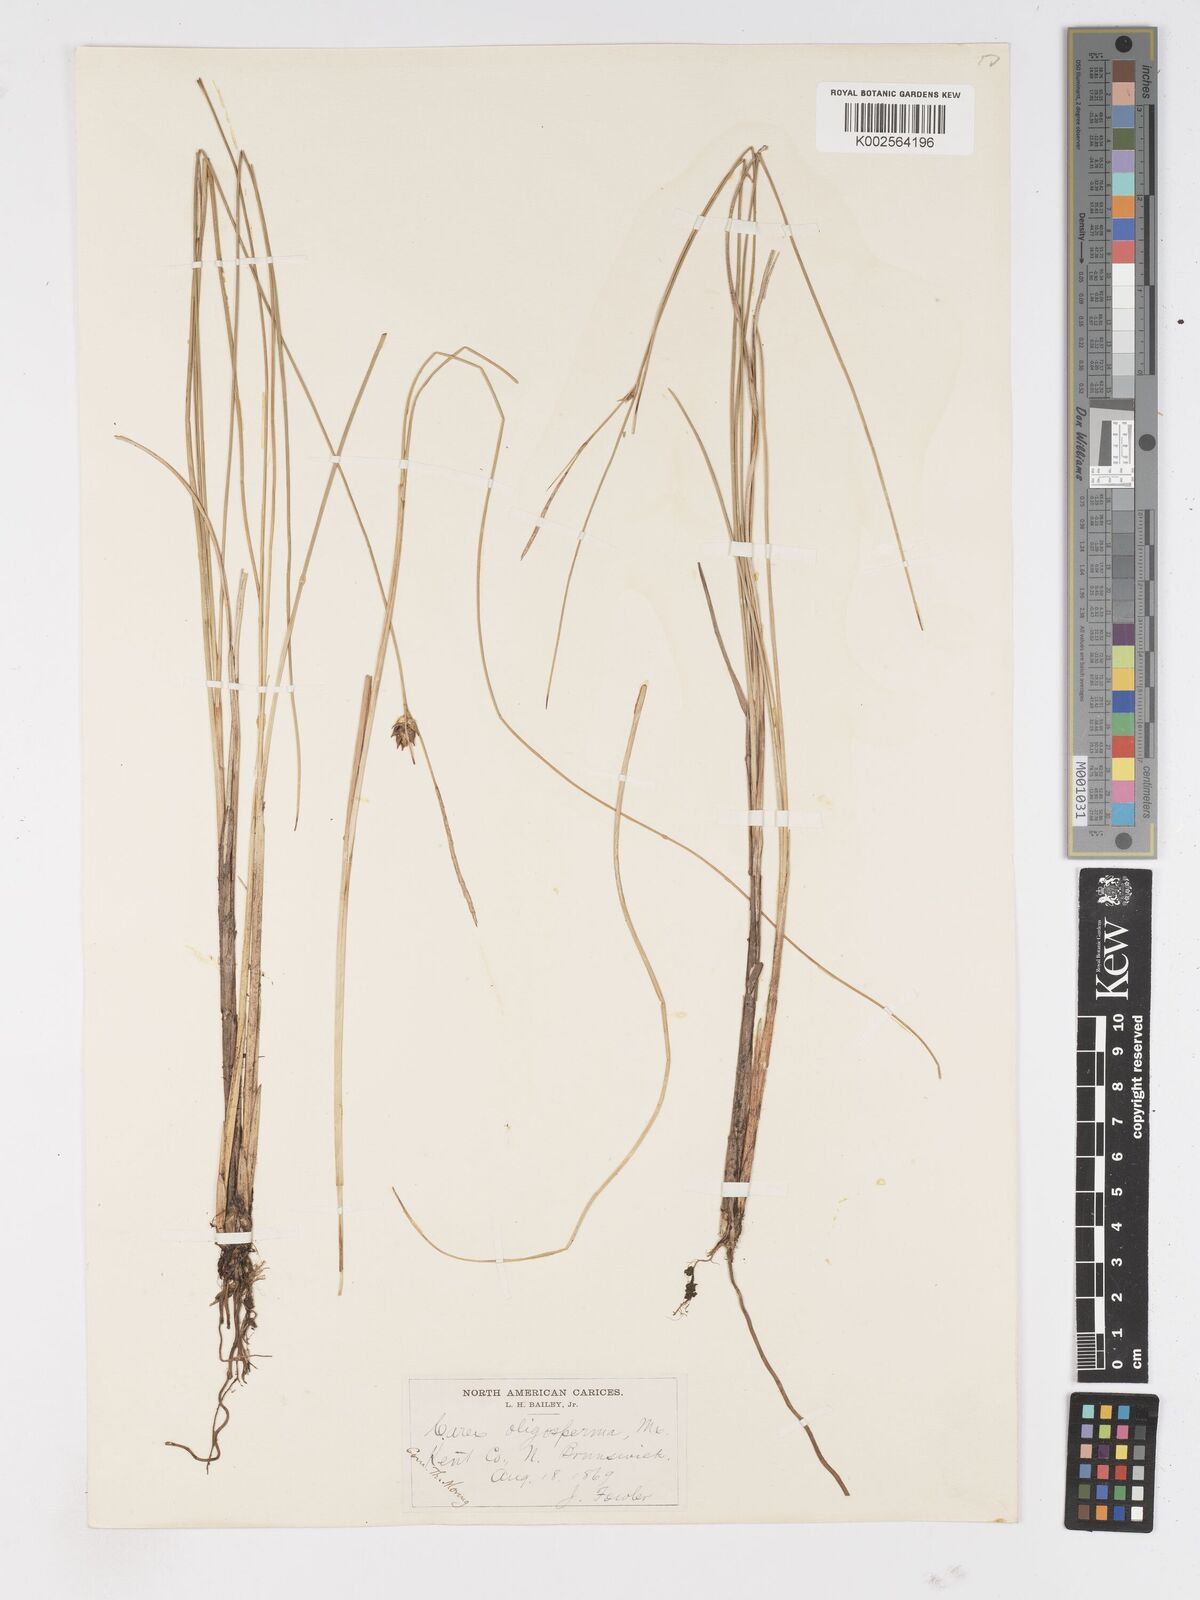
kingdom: Plantae
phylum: Tracheophyta
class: Liliopsida
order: Poales
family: Cyperaceae
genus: Carex
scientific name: Carex oligosperma
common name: Few-seed sedge
